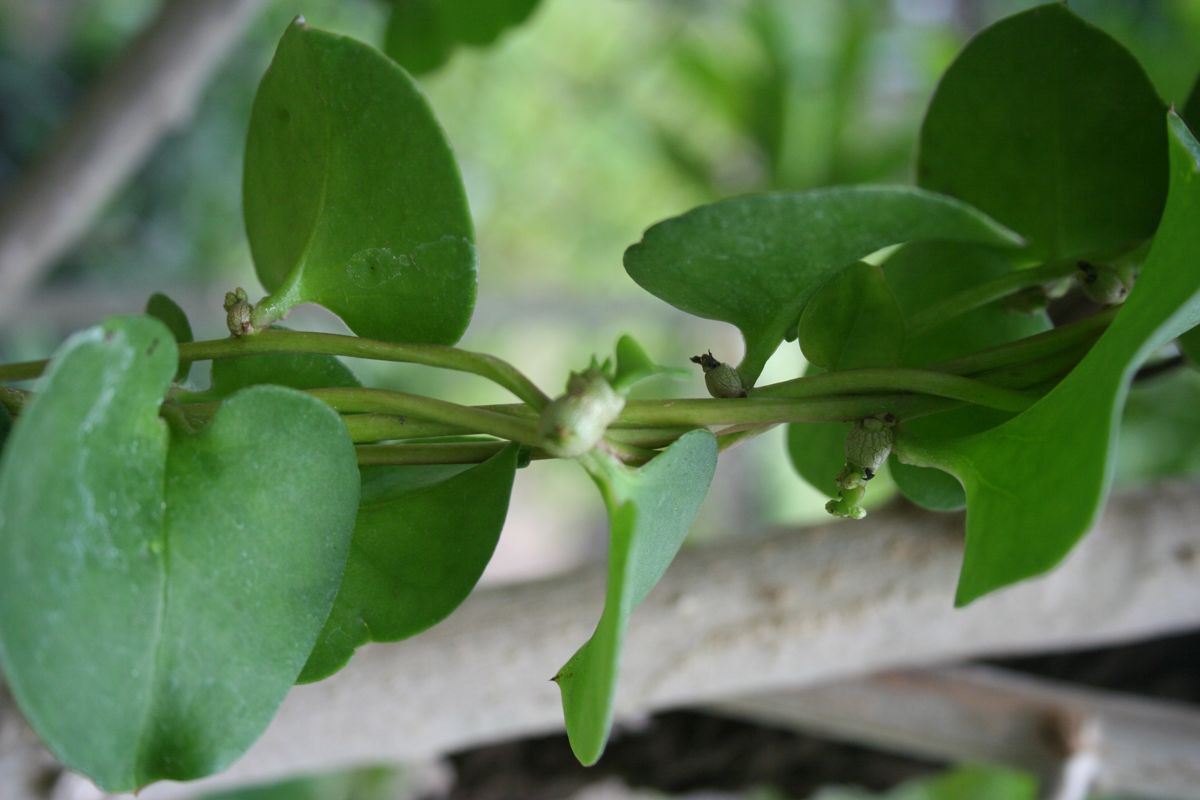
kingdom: Plantae
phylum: Tracheophyta
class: Magnoliopsida
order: Caryophyllales
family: Basellaceae
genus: Anredera
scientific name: Anredera cordifolia
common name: Heartleaf madeiravine
